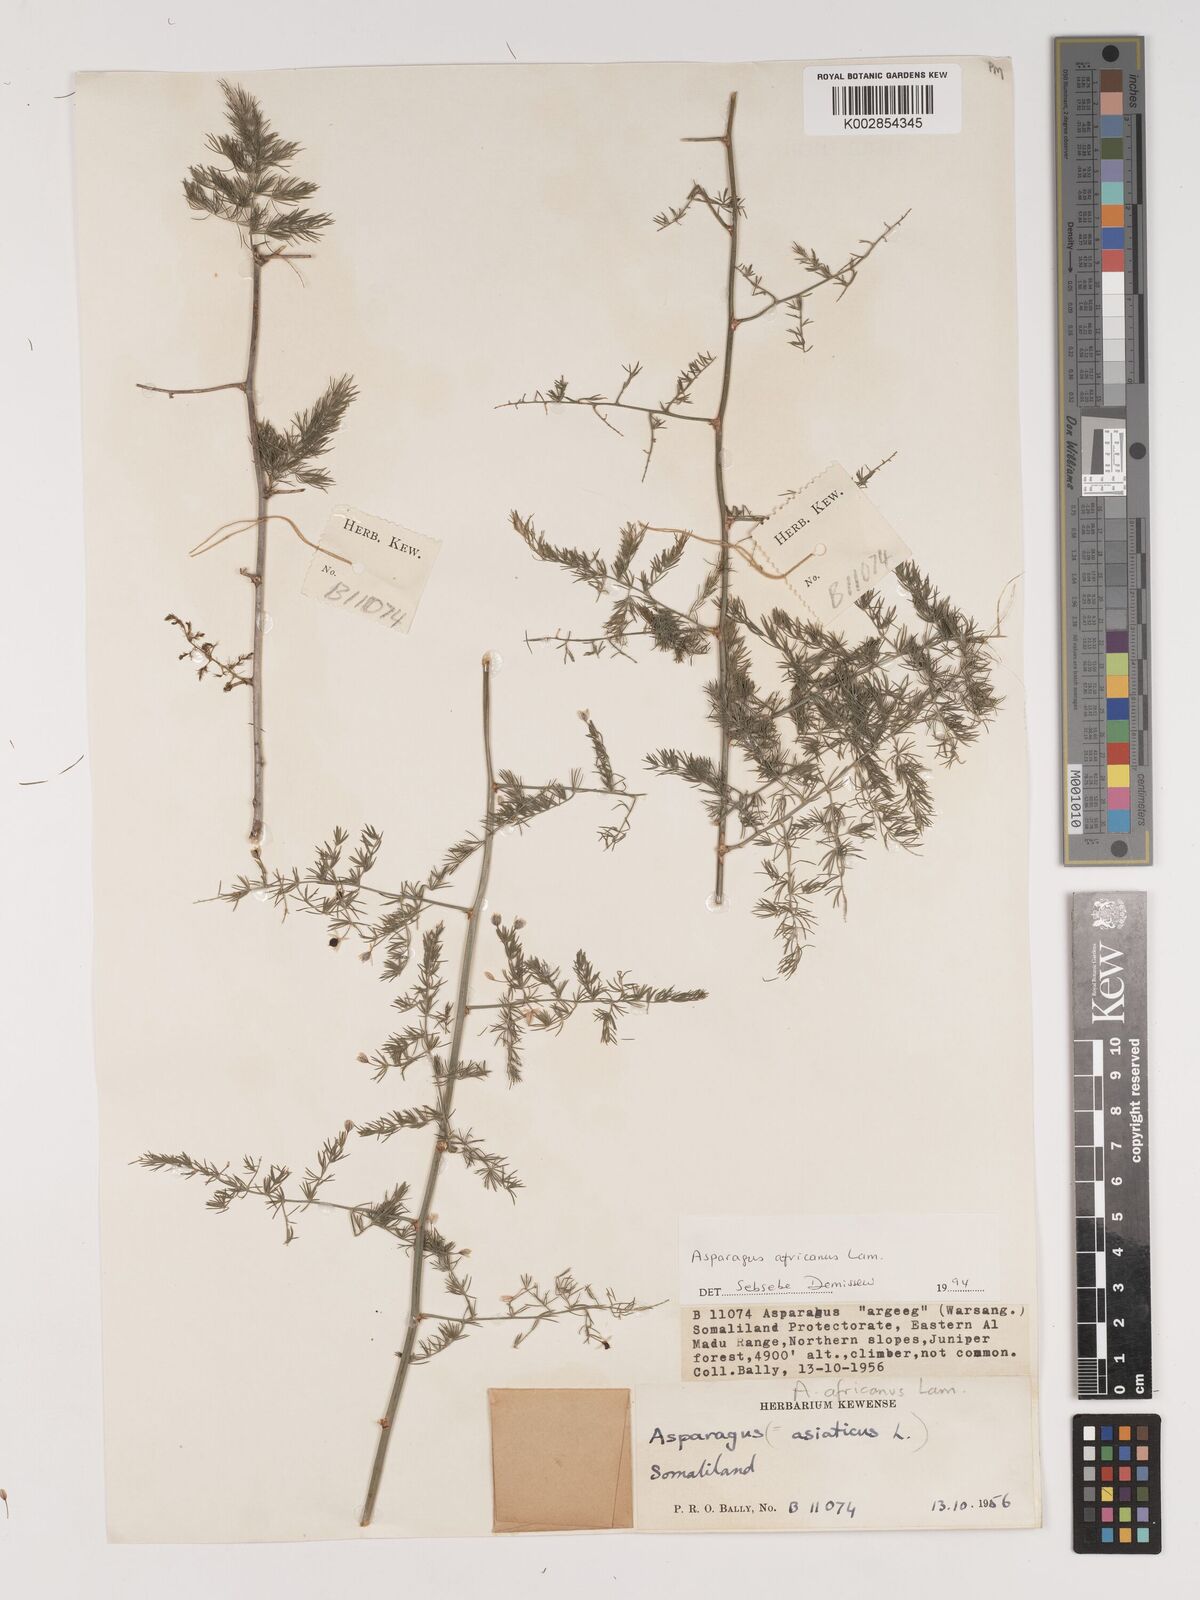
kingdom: Plantae
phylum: Tracheophyta
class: Liliopsida
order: Asparagales
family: Asparagaceae
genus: Asparagus
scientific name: Asparagus africanus
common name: Asparagus-fern
